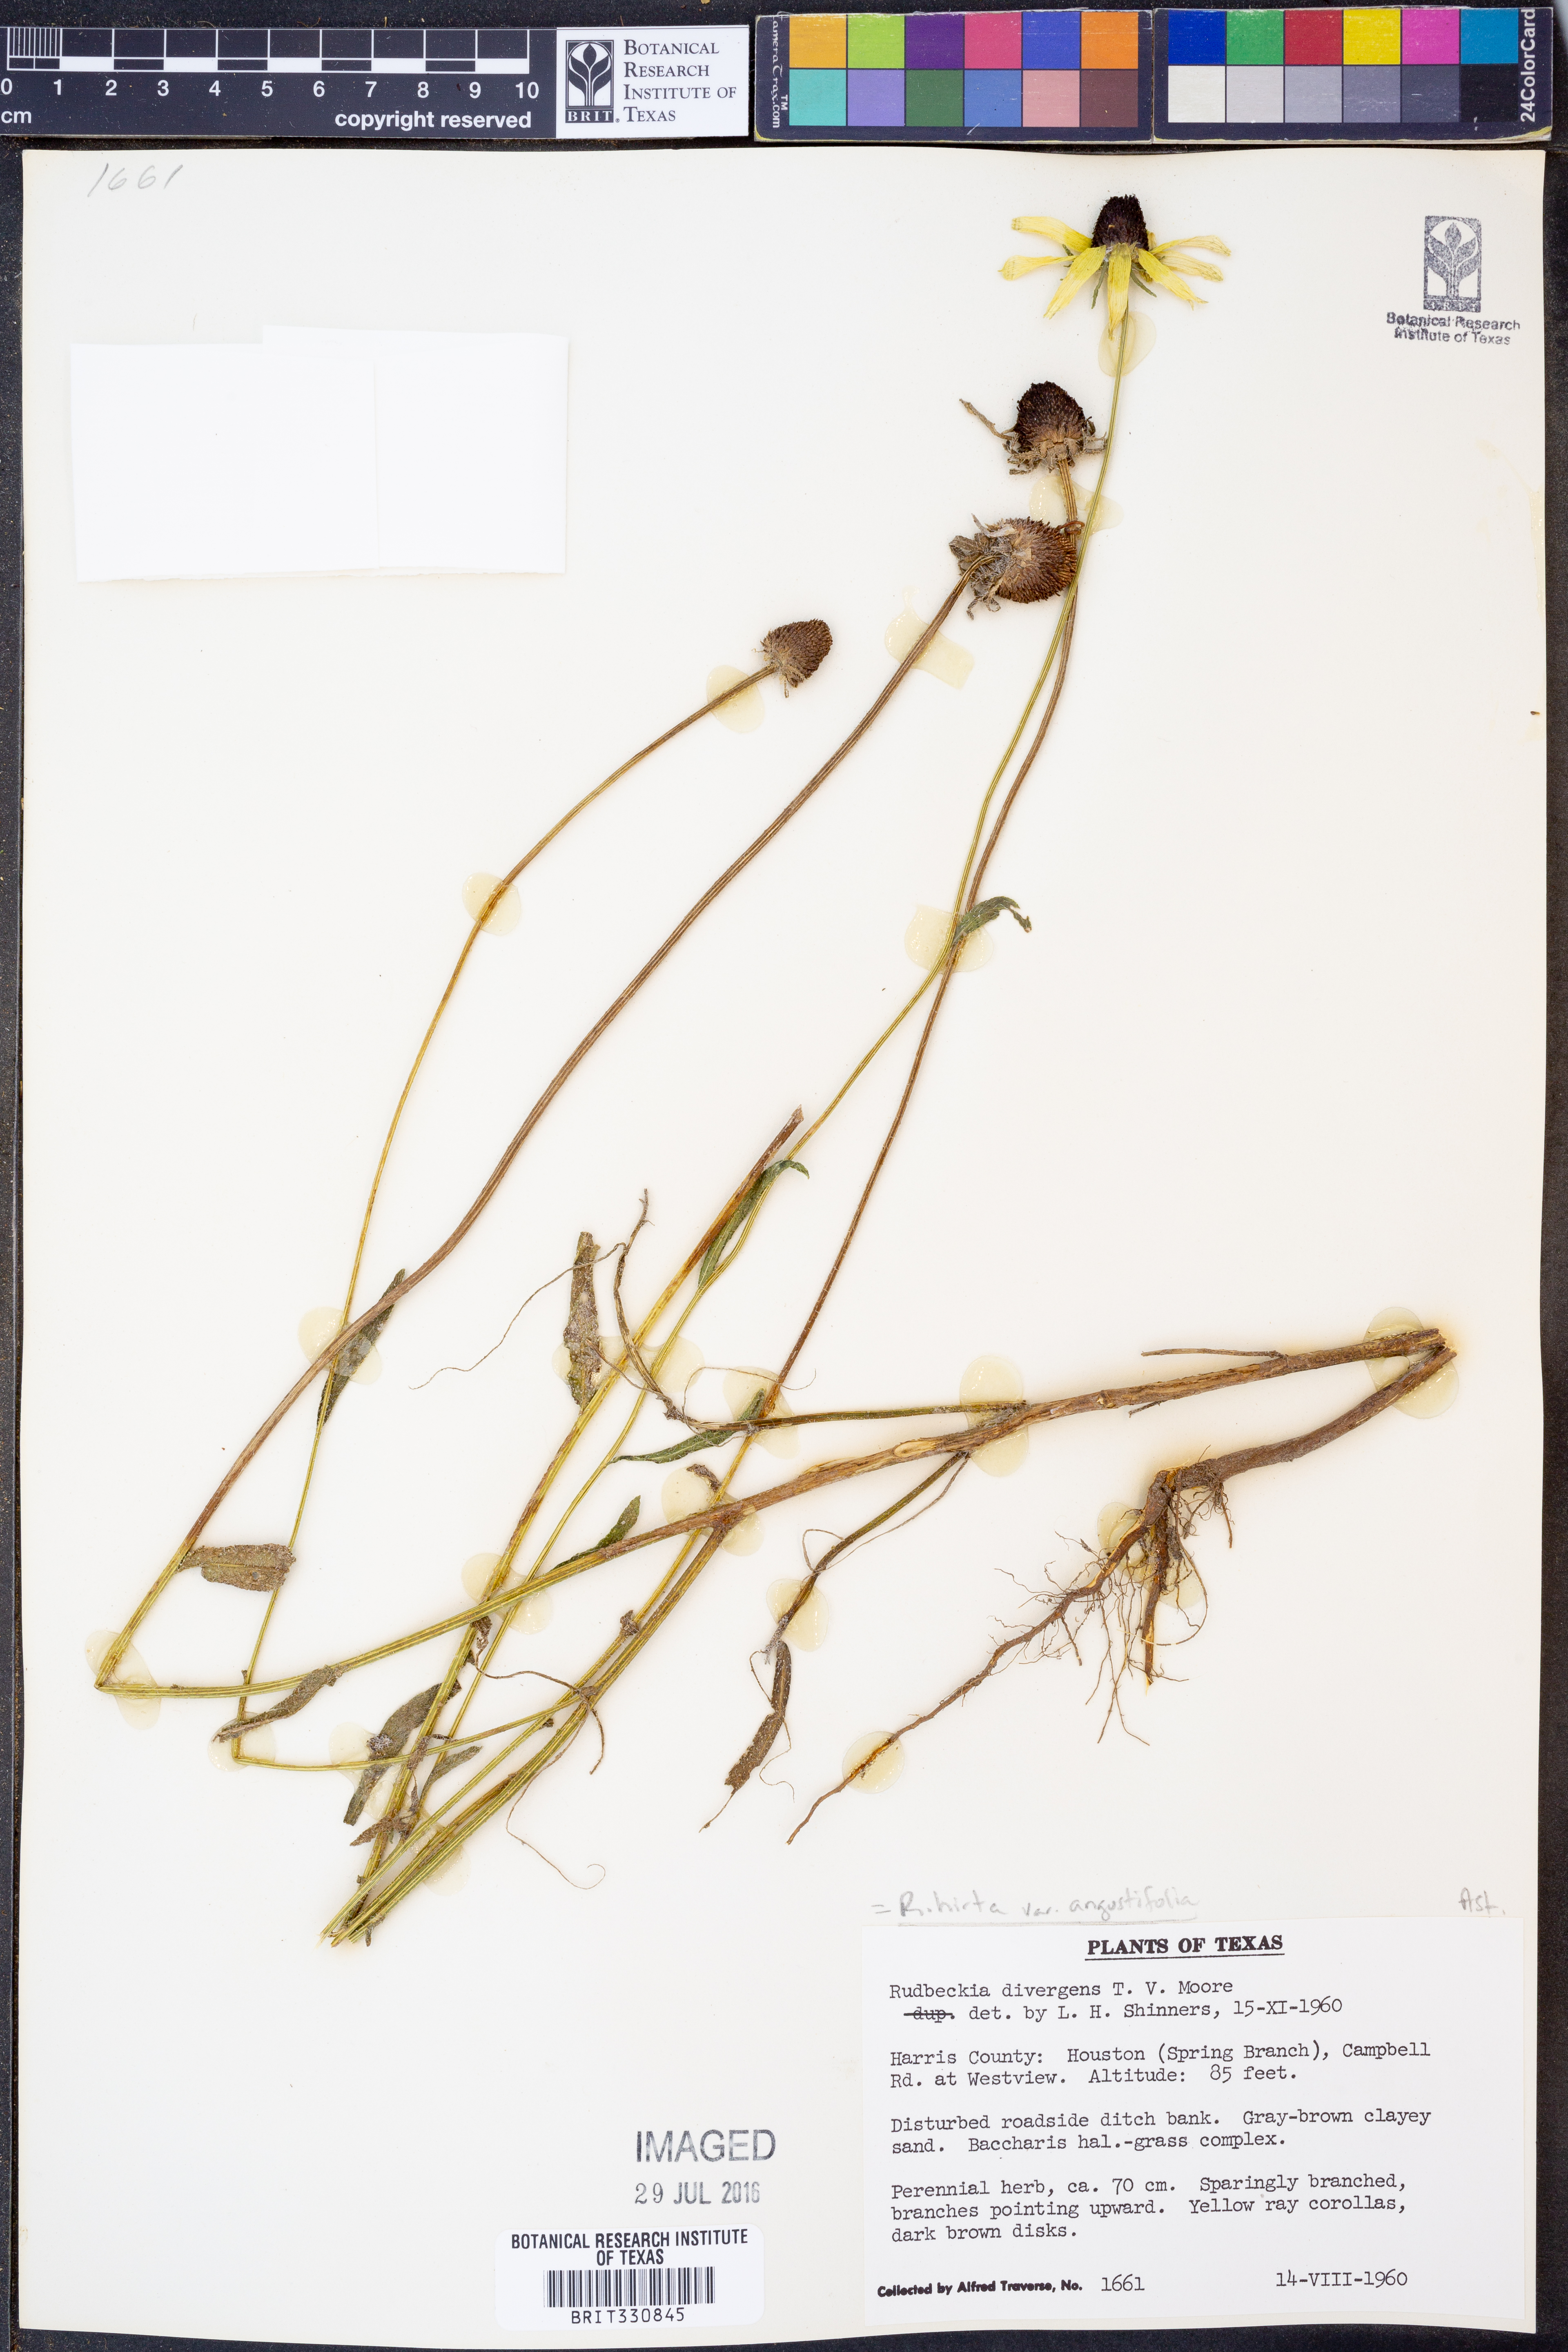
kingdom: Plantae
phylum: Tracheophyta
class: Magnoliopsida
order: Asterales
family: Asteraceae
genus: Rudbeckia
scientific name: Rudbeckia hirta
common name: Black-eyed-susan
